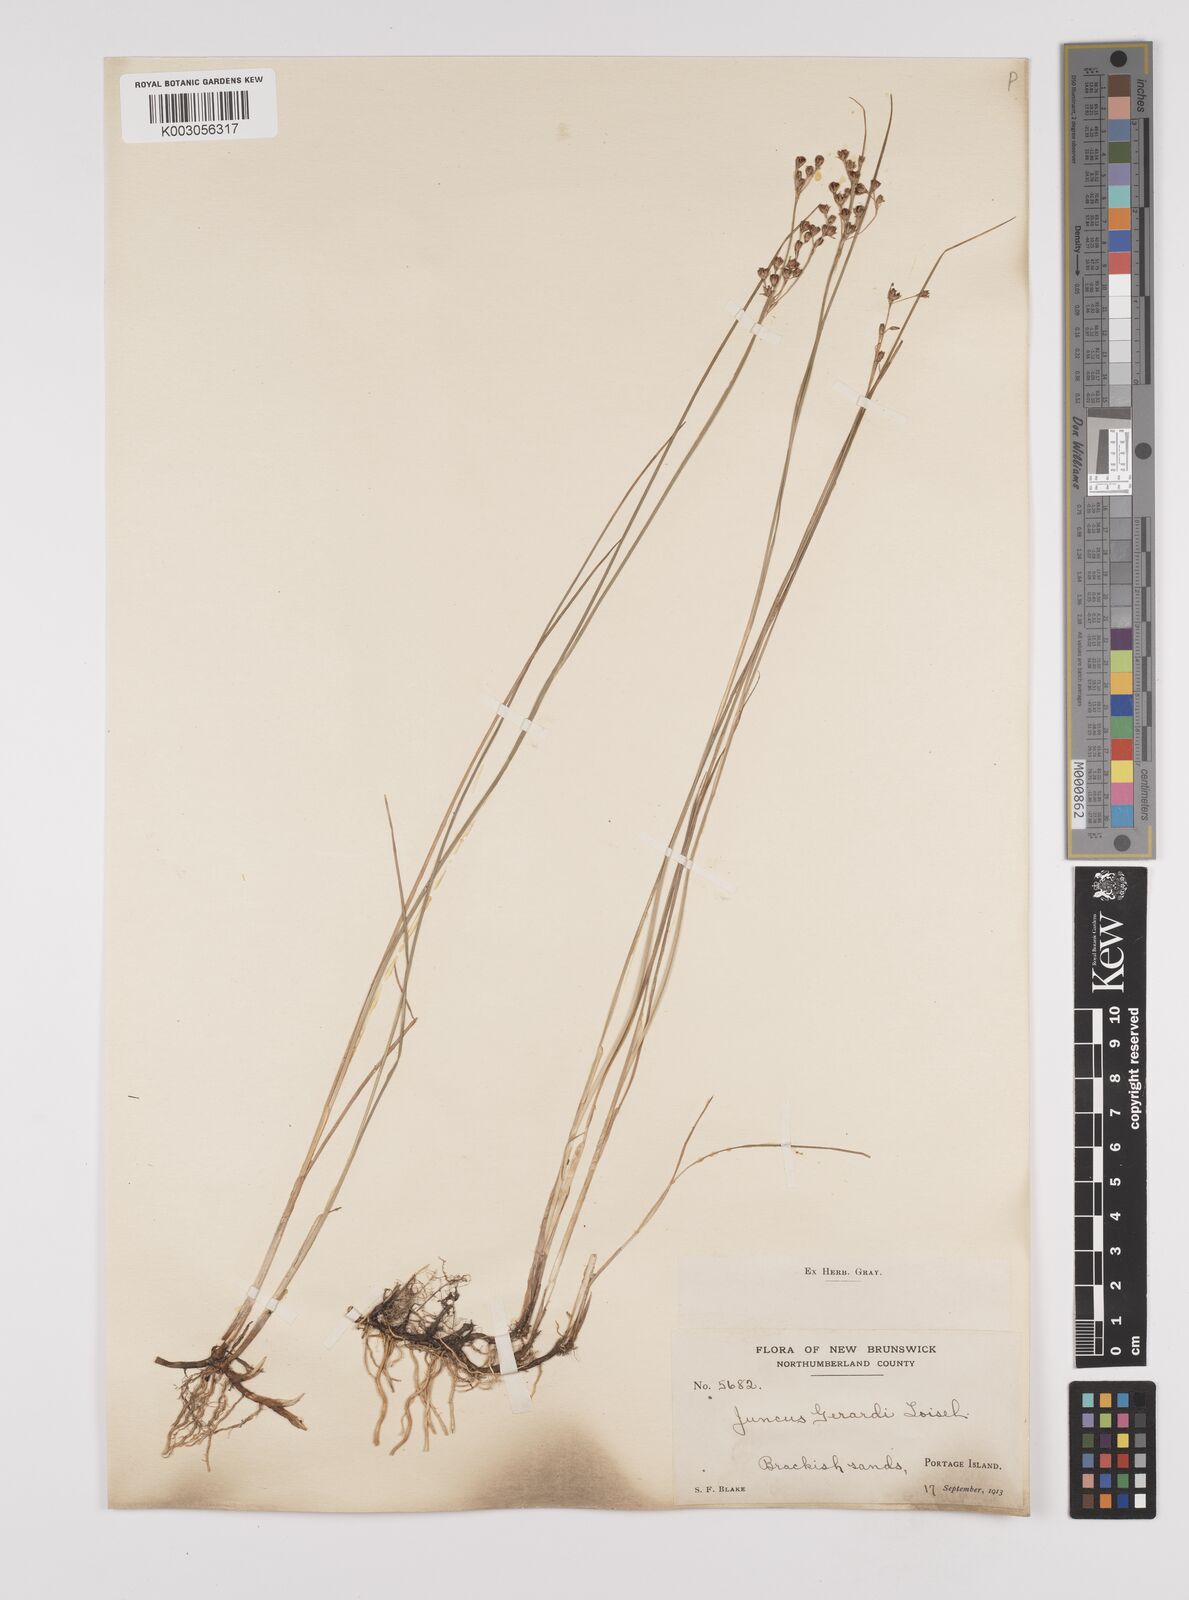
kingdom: Plantae
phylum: Tracheophyta
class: Liliopsida
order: Poales
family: Juncaceae
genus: Juncus
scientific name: Juncus gerardi
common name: Saltmarsh rush
